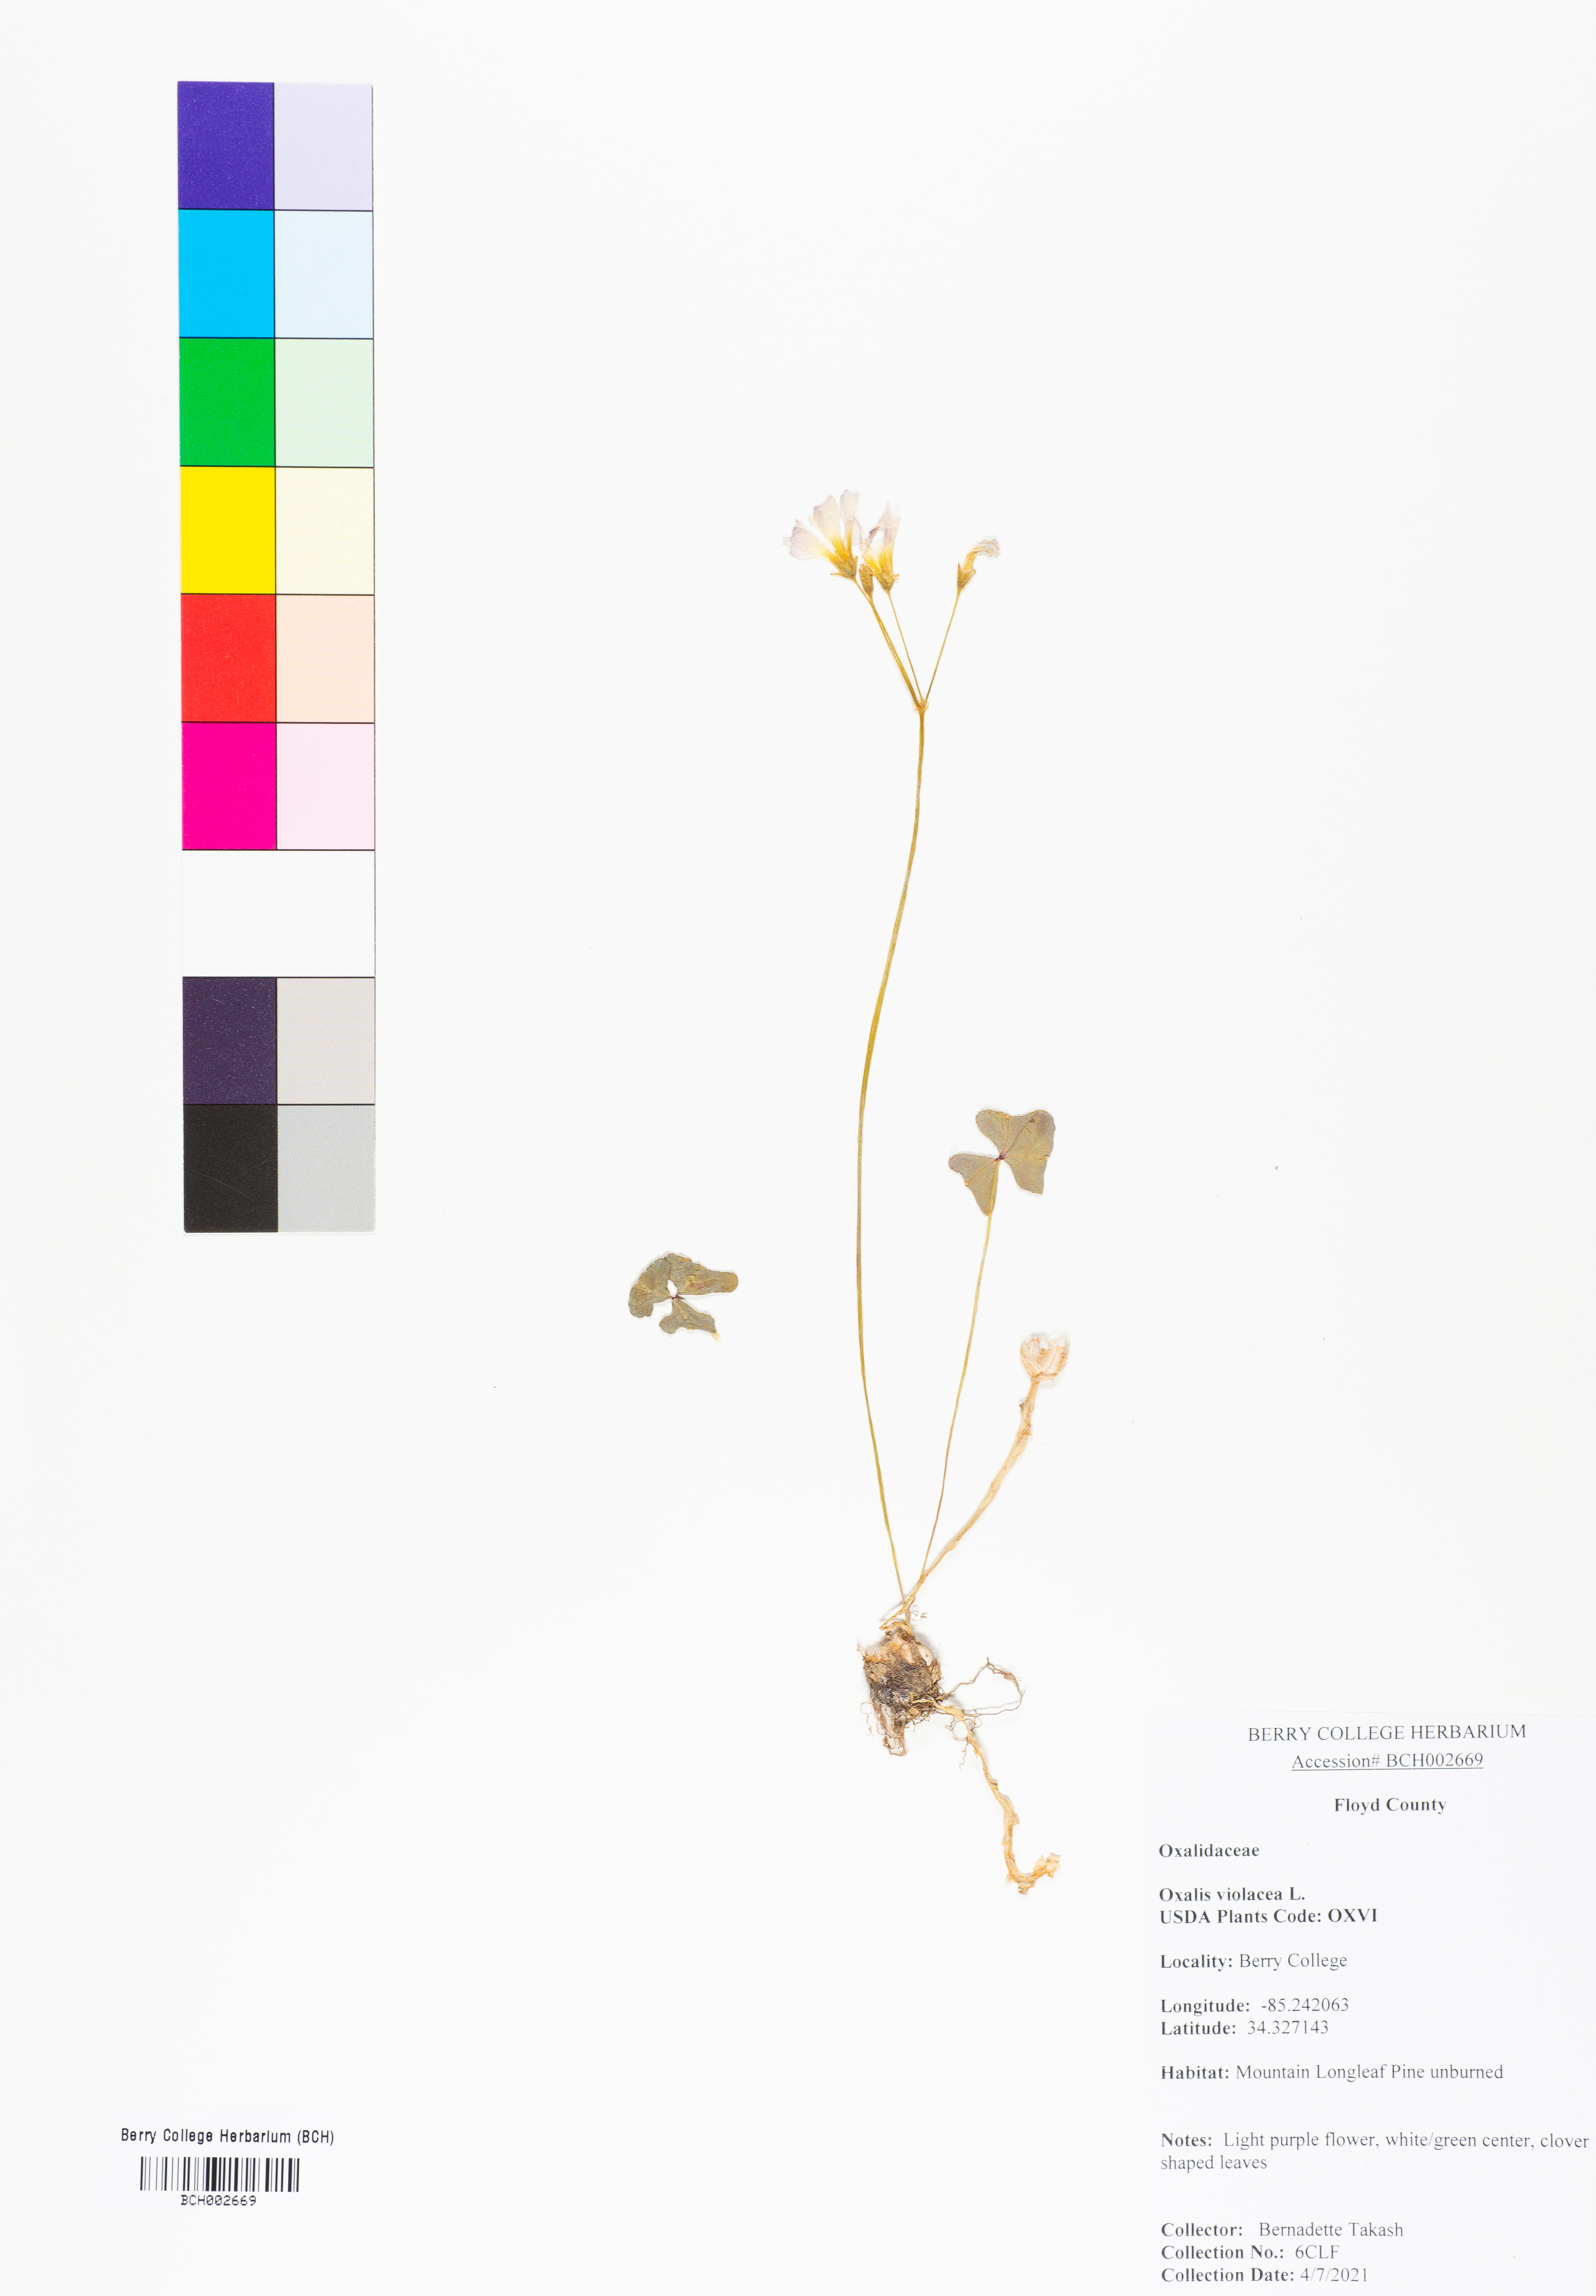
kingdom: Plantae
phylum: Tracheophyta
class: Magnoliopsida
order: Oxalidales
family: Oxalidaceae
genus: Oxalis
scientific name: Oxalis violacea
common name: Violet wood-sorrel
